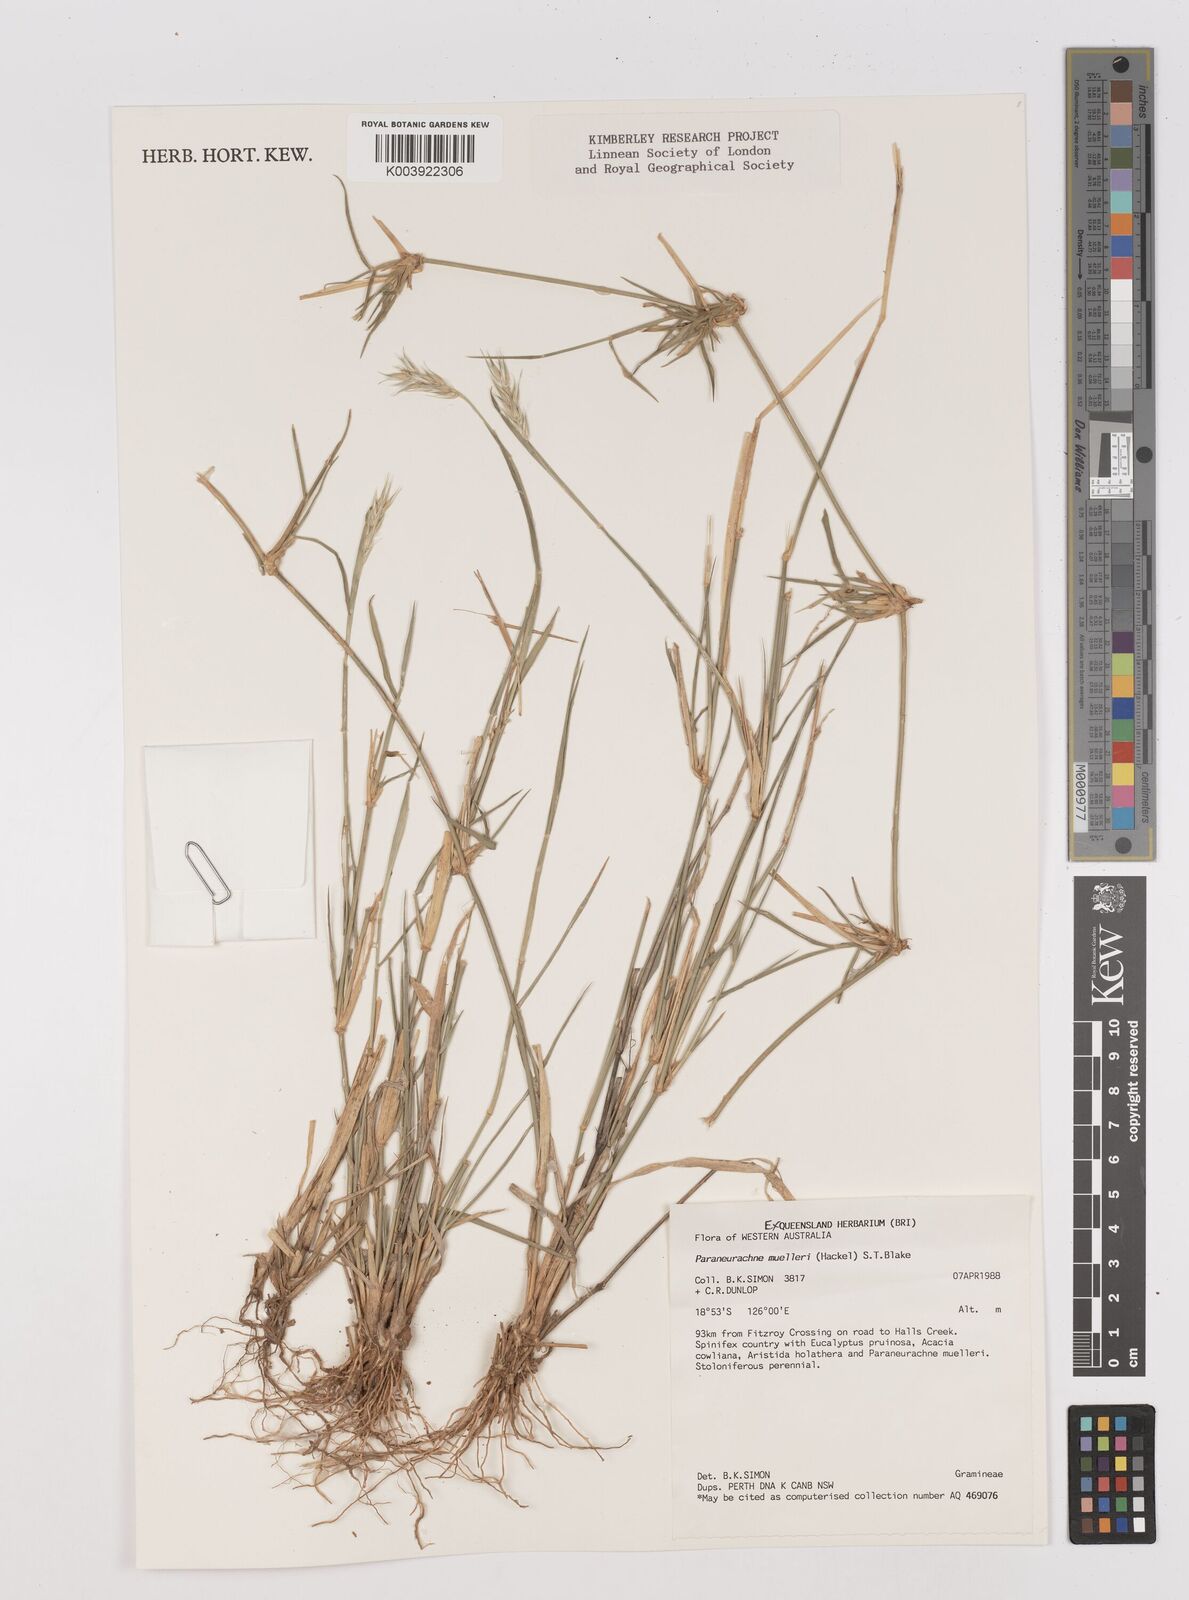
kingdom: Plantae
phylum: Tracheophyta
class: Liliopsida
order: Poales
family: Poaceae
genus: Neurachne
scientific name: Neurachne muelleri
